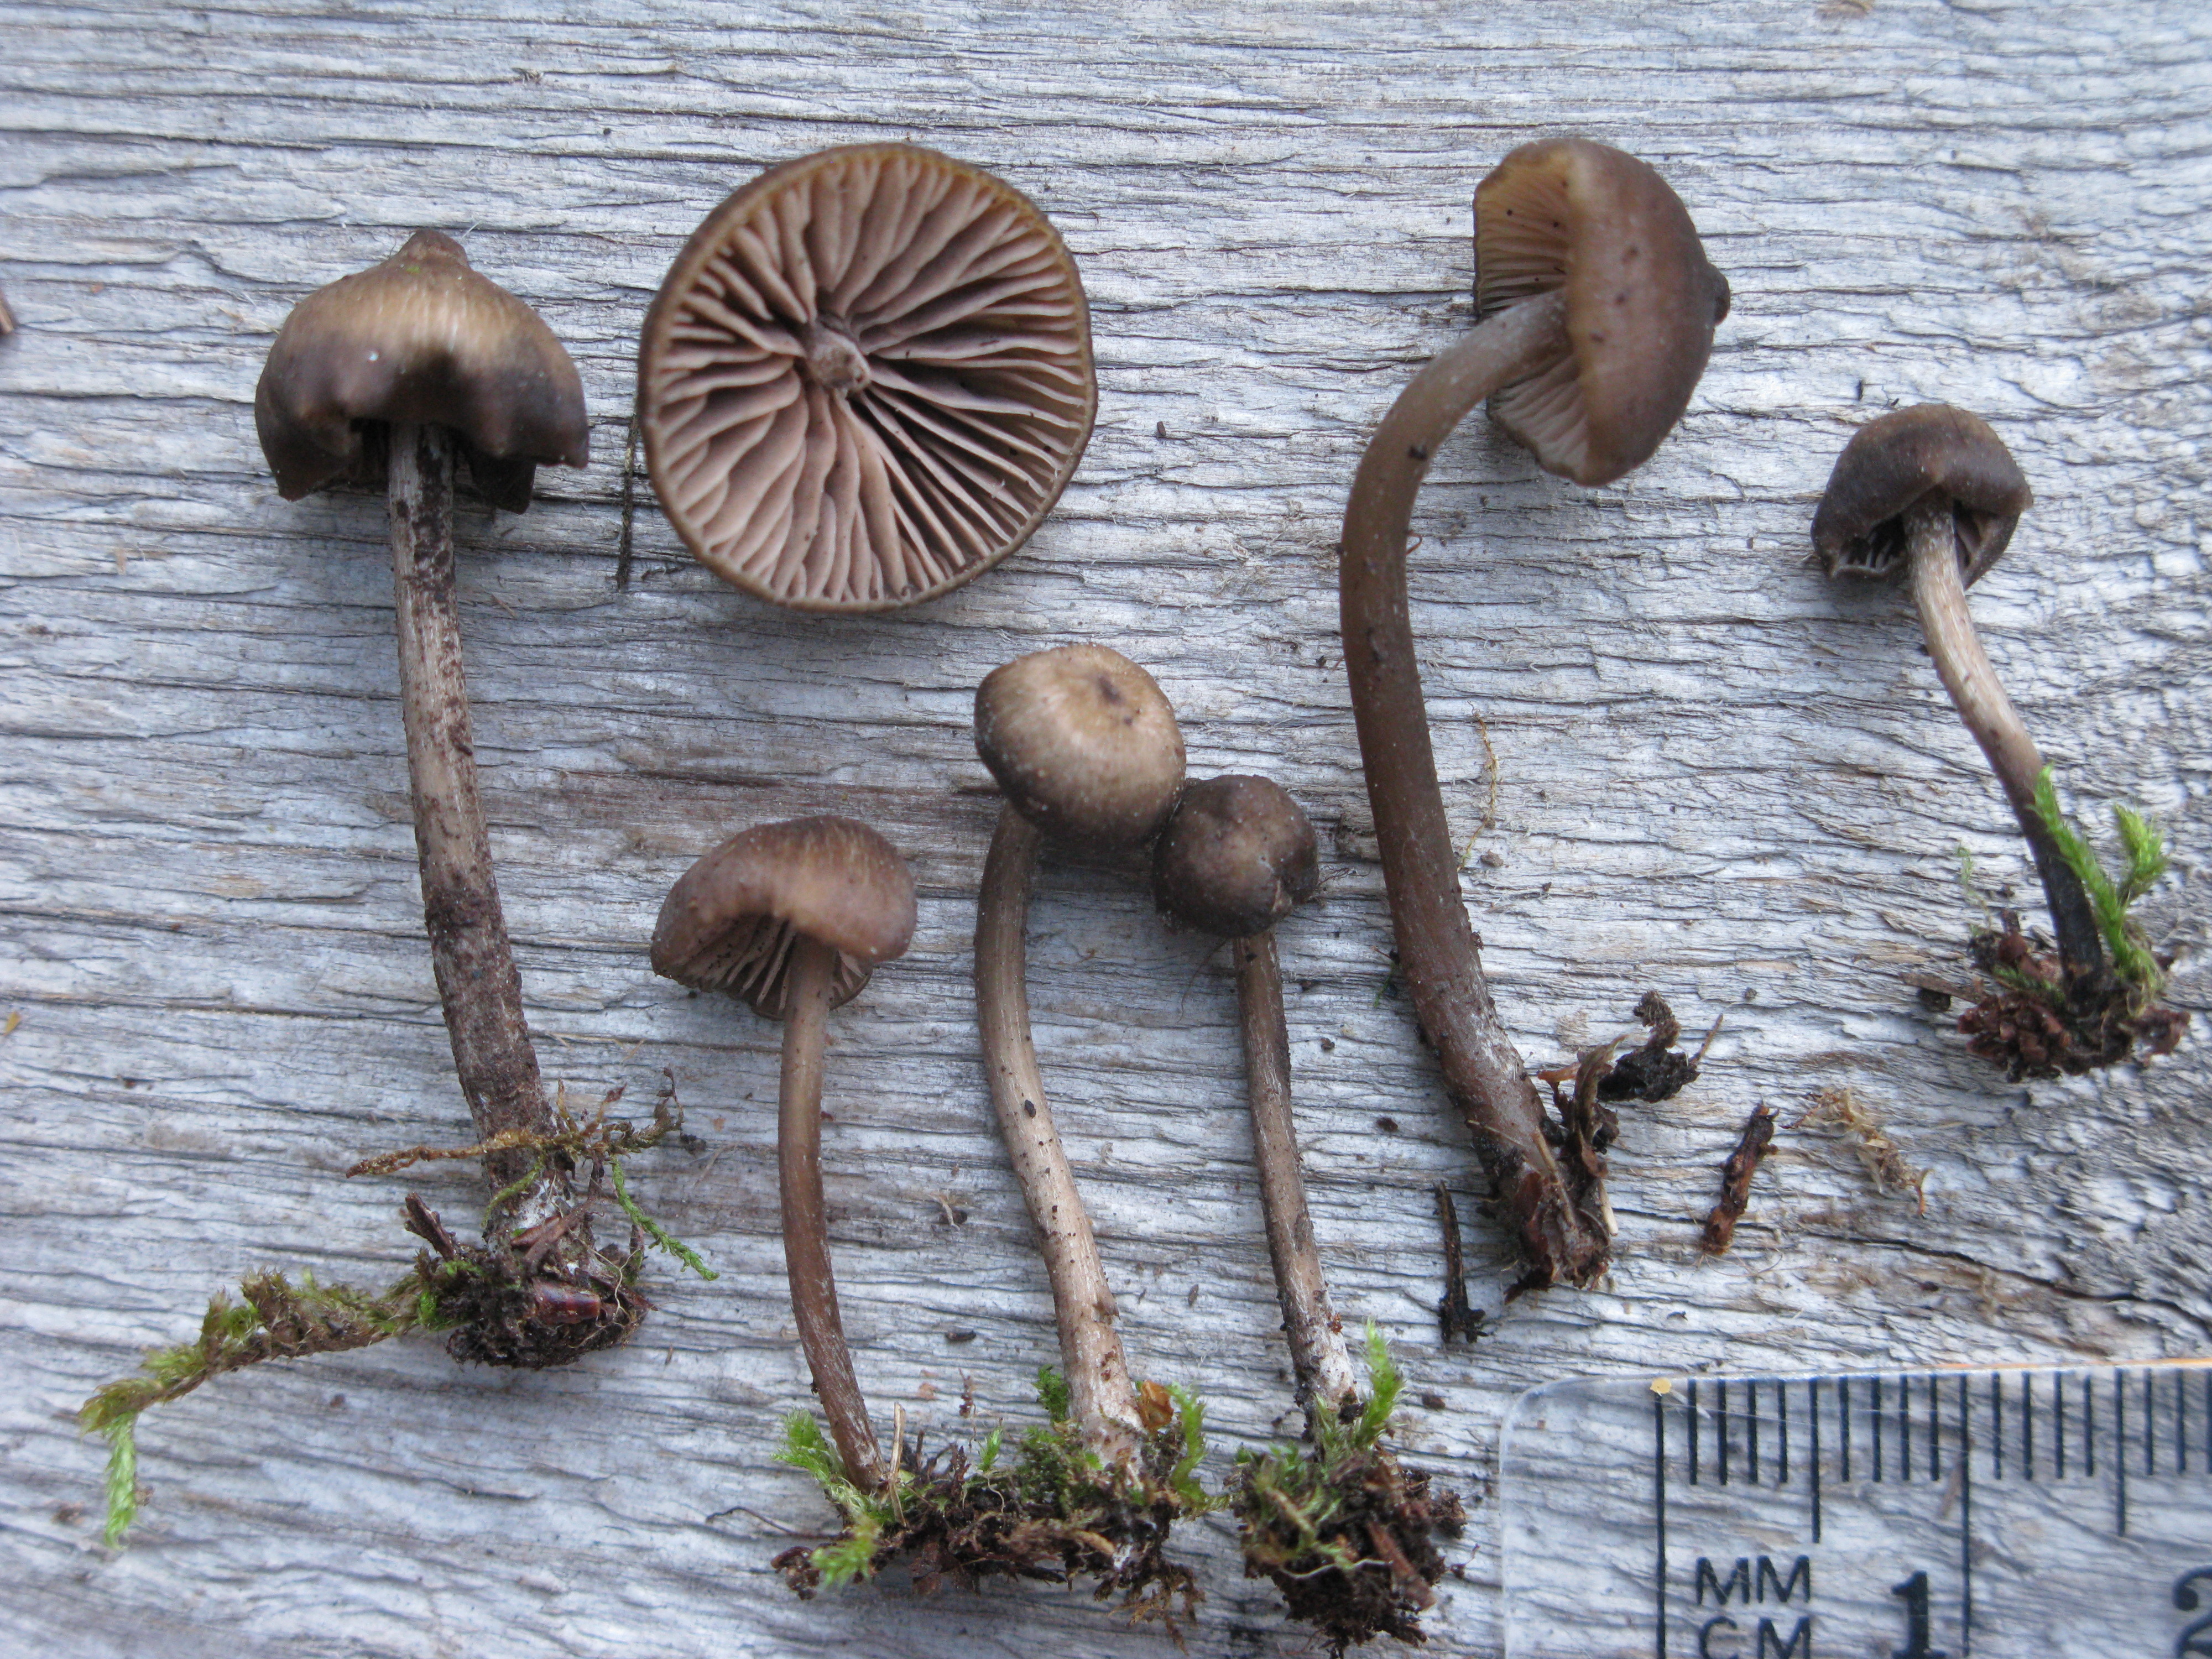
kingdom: Fungi
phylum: Basidiomycota
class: Agaricomycetes
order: Agaricales
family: Entolomataceae
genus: Entoloma
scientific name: Entoloma clandestinum
